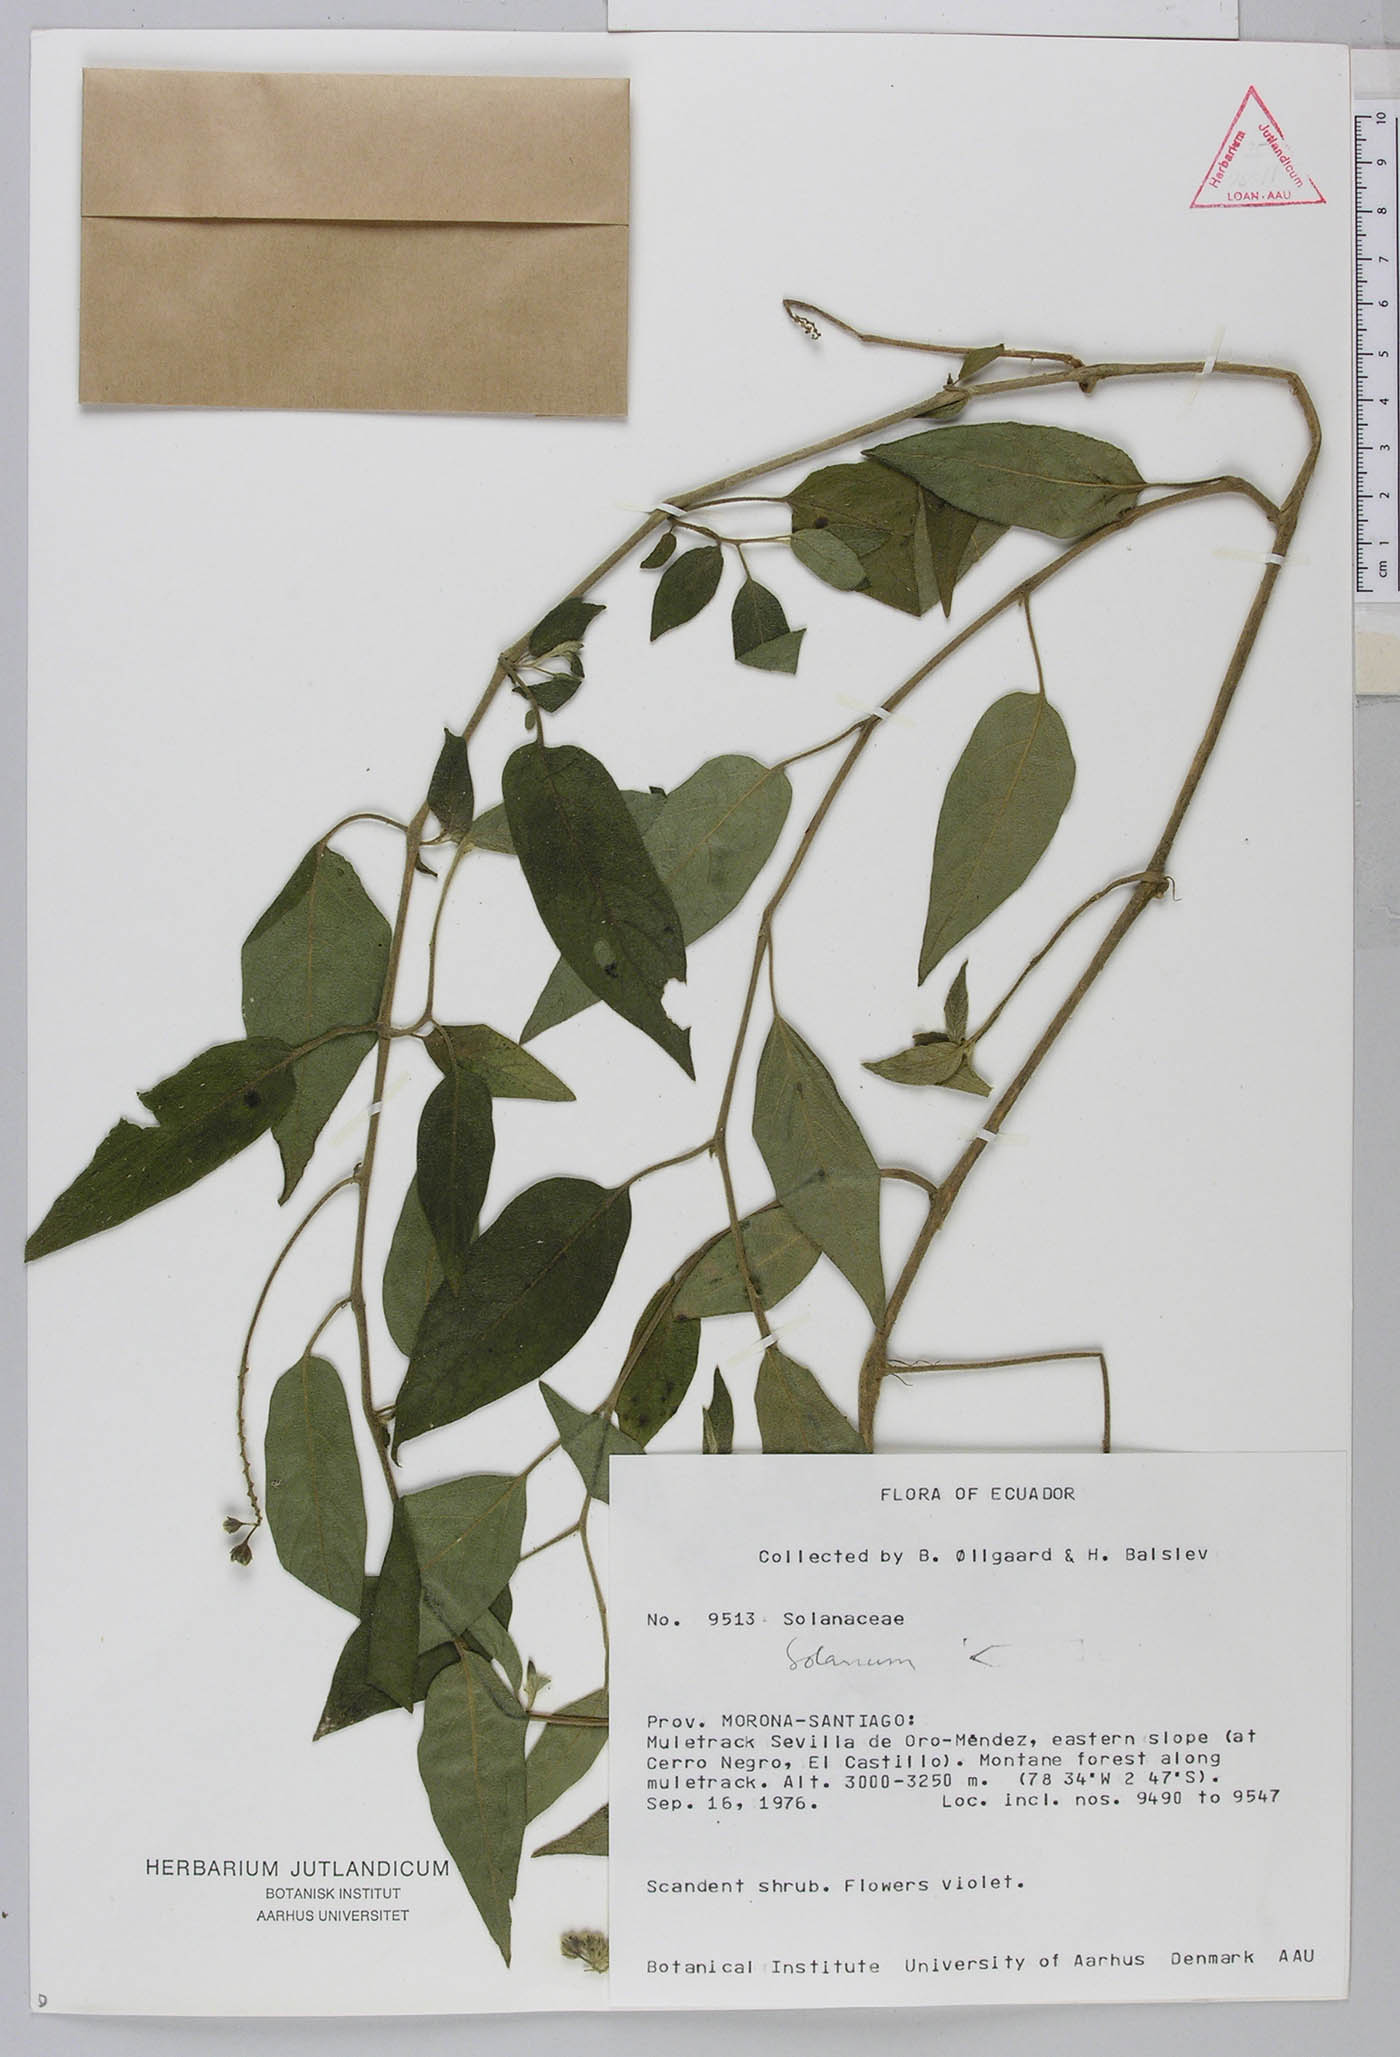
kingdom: Plantae
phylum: Tracheophyta
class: Magnoliopsida
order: Solanales
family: Solanaceae
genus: Solanum
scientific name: Solanum muricatum
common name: Peruvian pepino
